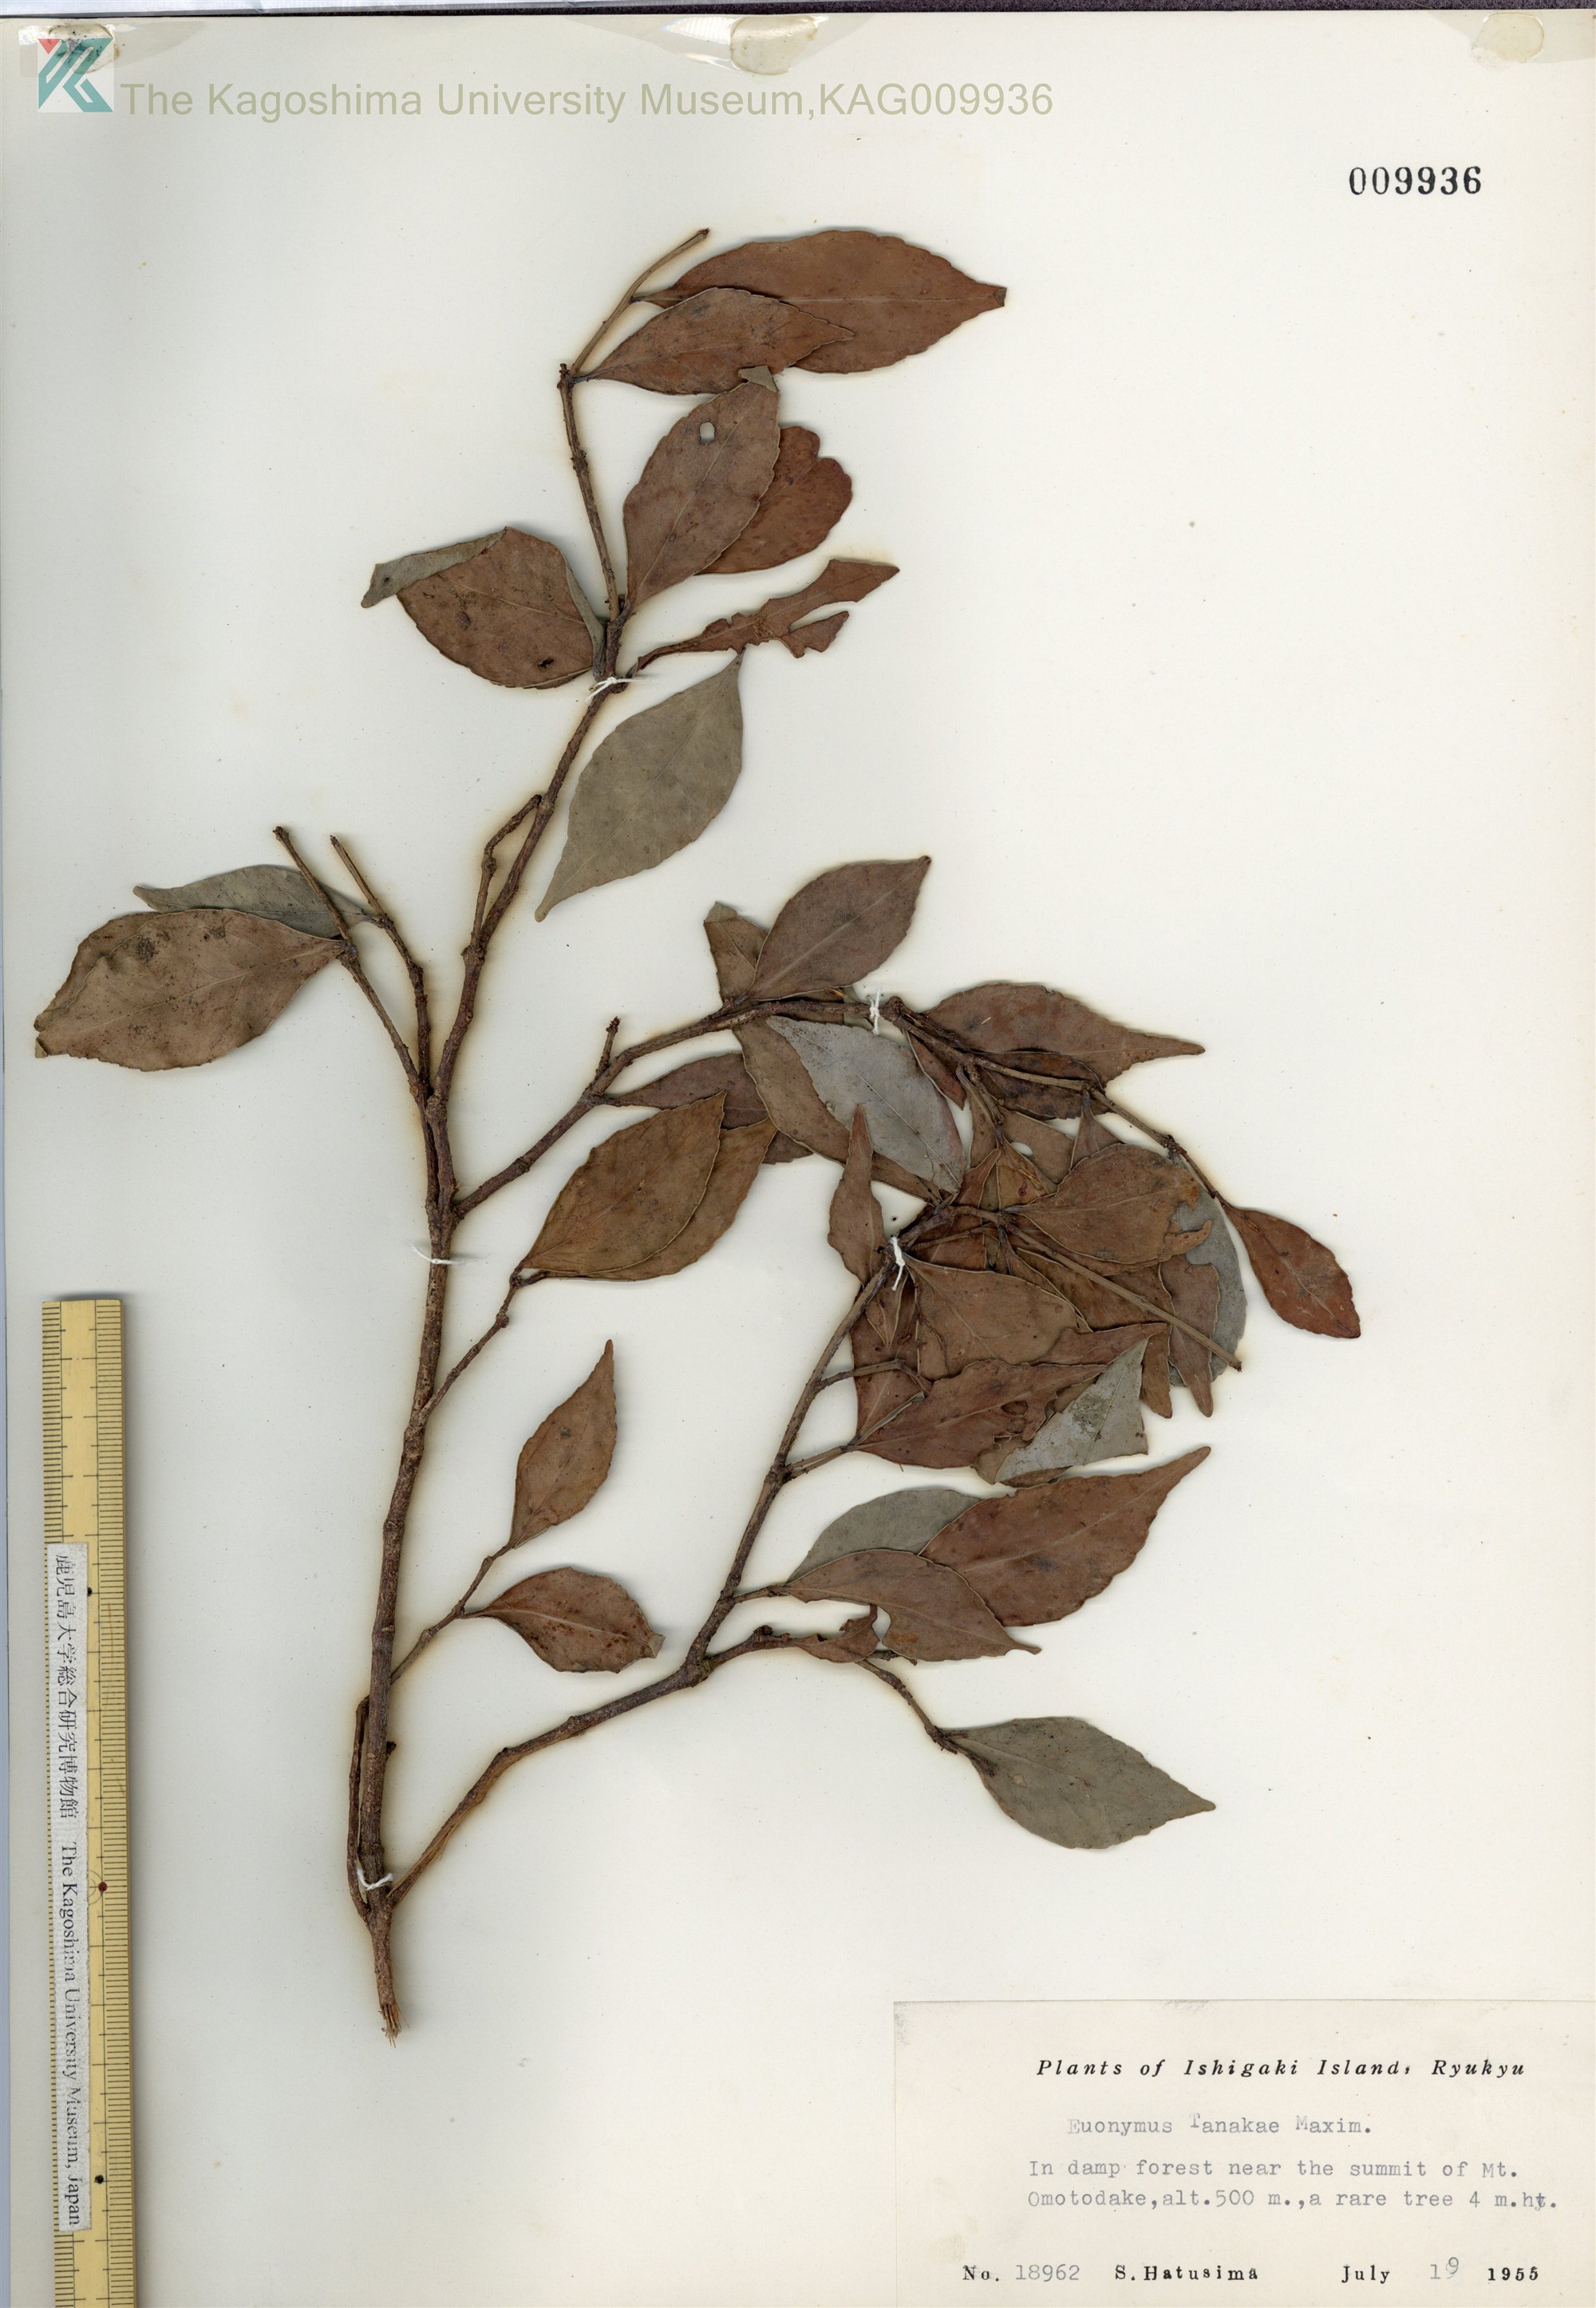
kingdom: Plantae
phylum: Tracheophyta
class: Magnoliopsida
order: Celastrales
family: Celastraceae
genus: Euonymus
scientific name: Euonymus tashiroi
